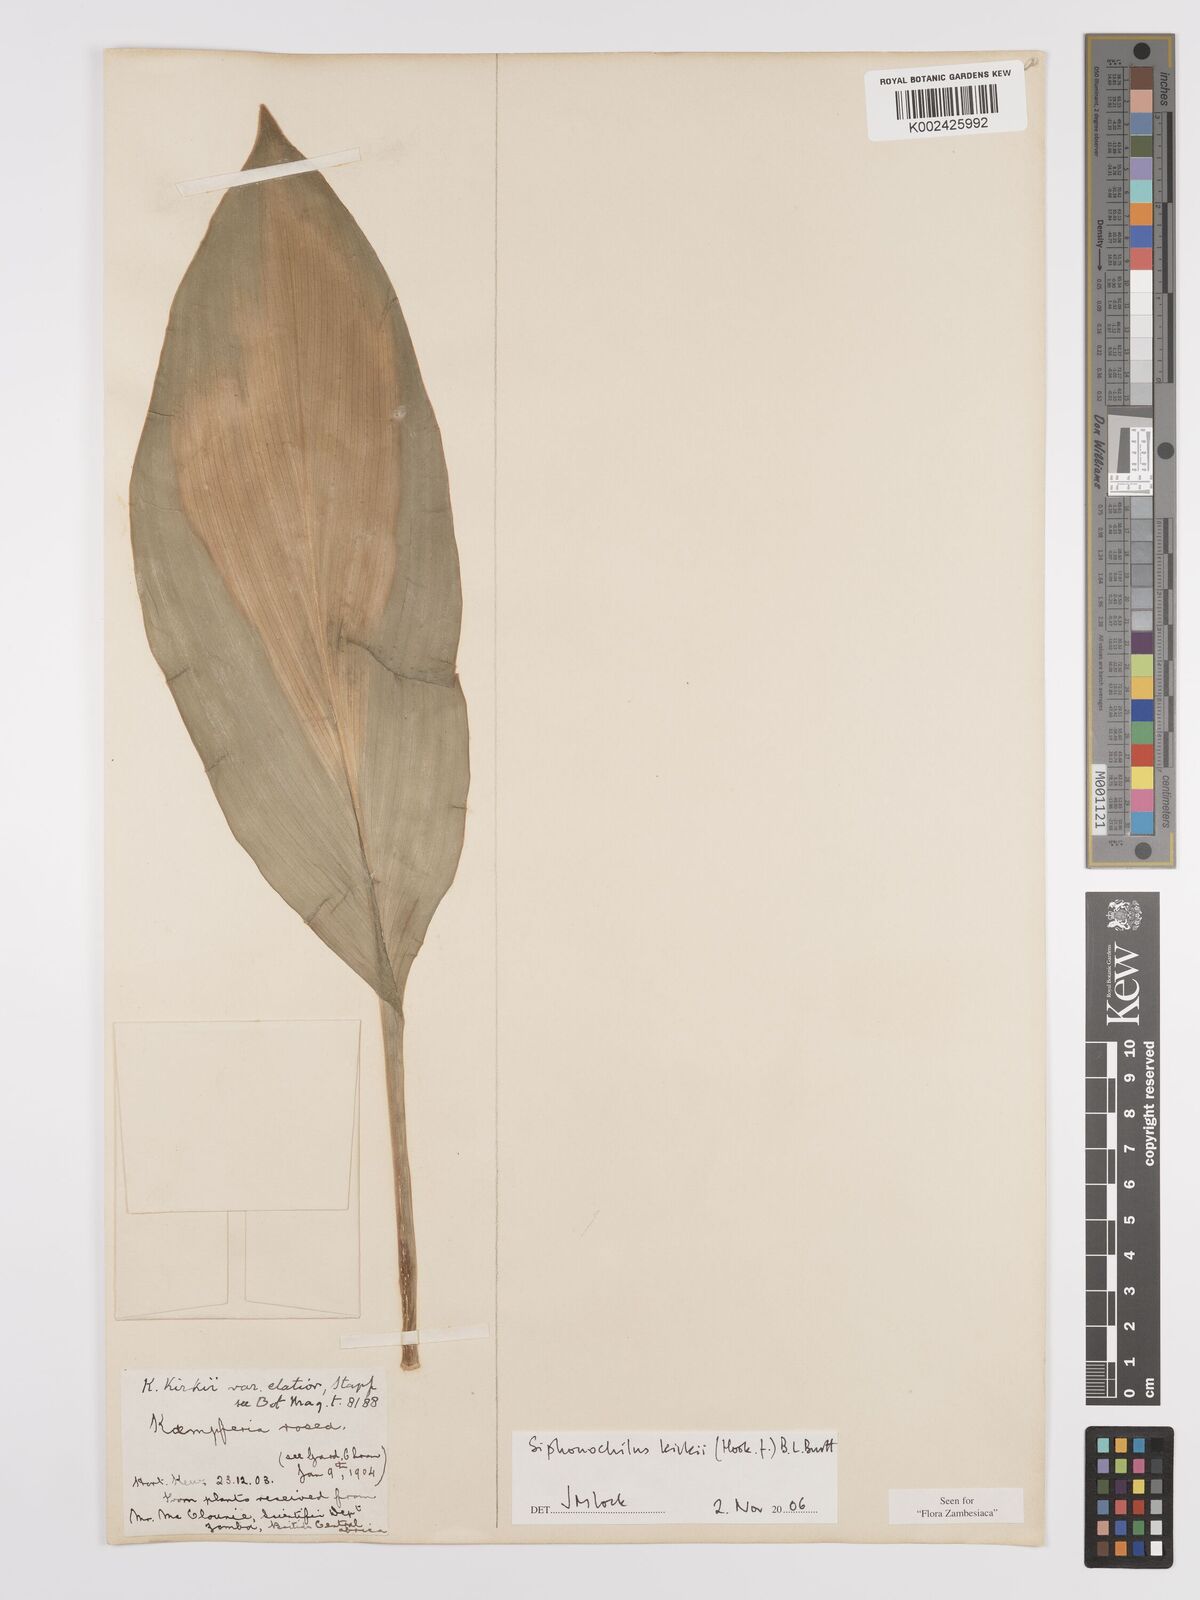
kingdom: Plantae
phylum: Tracheophyta
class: Liliopsida
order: Zingiberales
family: Zingiberaceae
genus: Siphonochilus
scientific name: Siphonochilus kirkii
